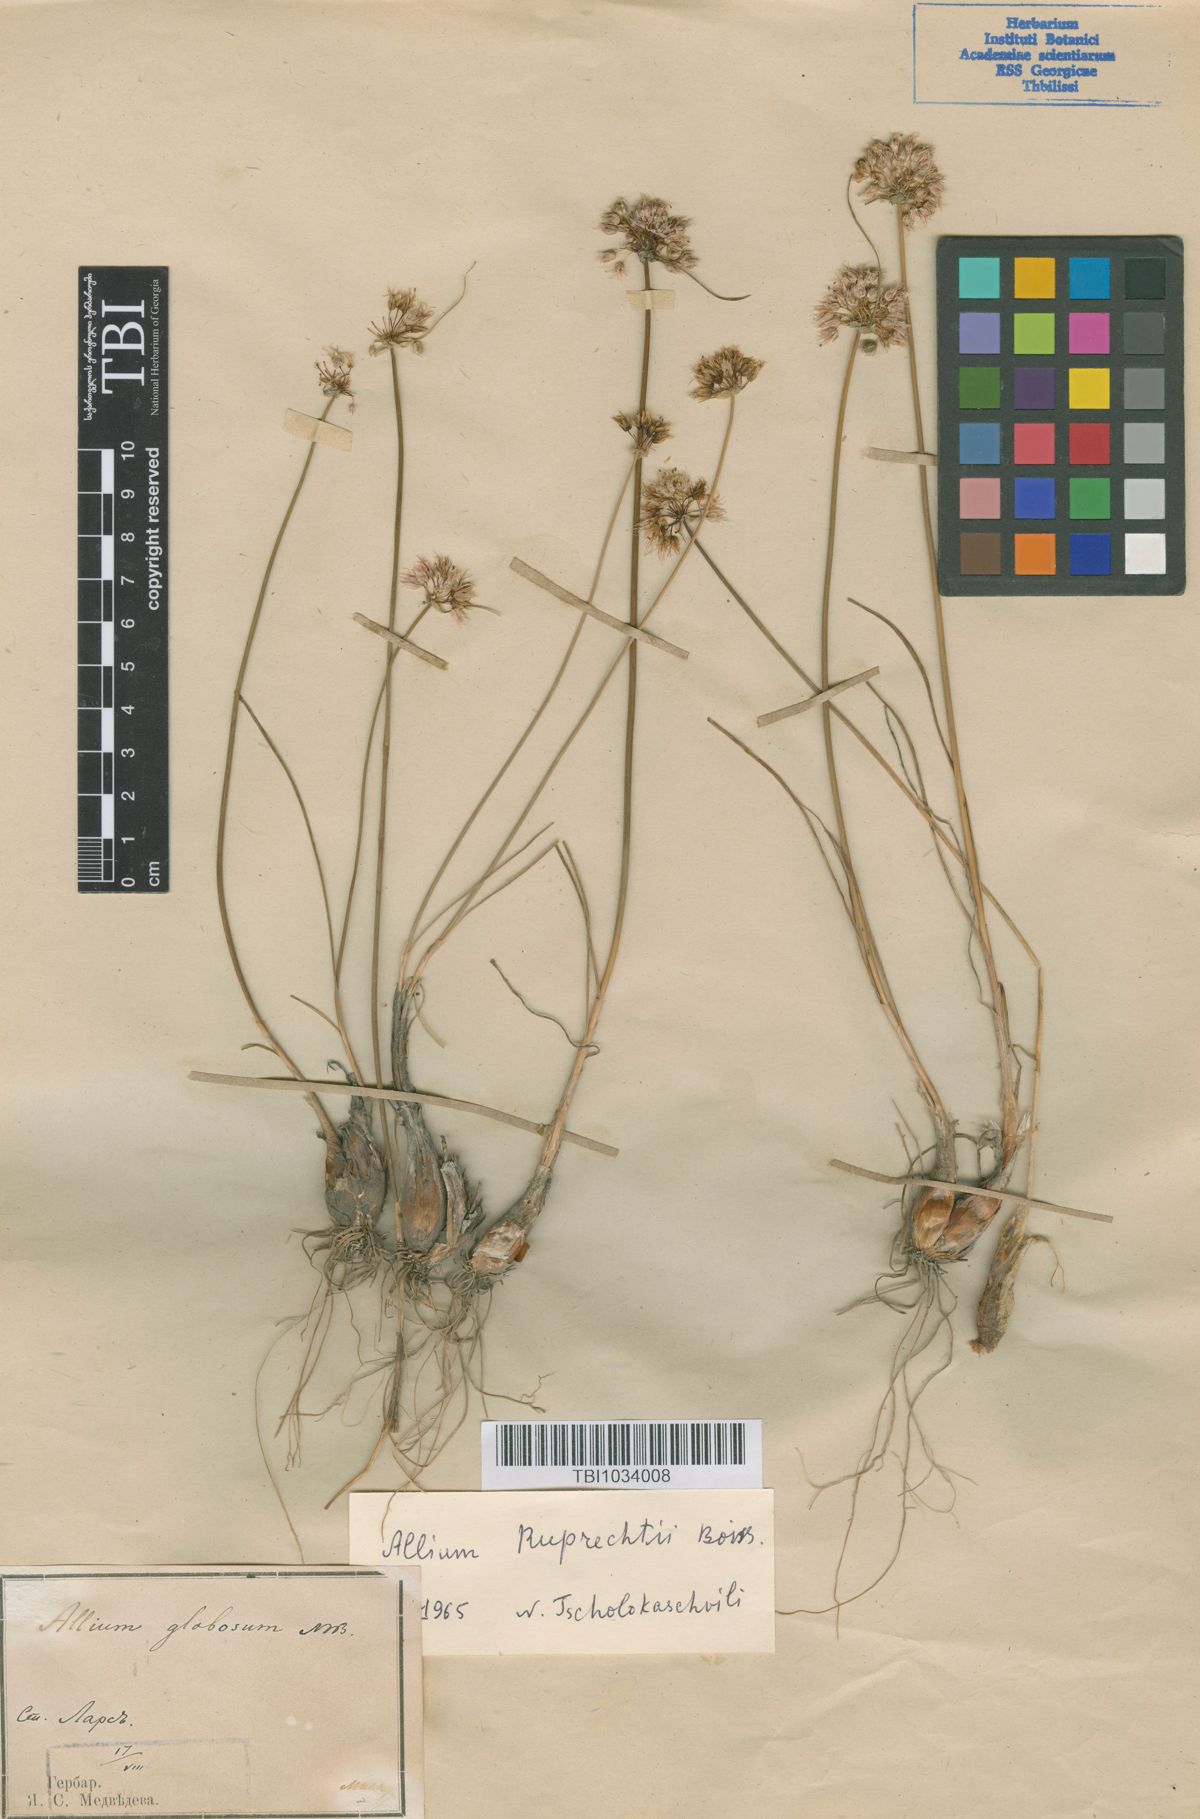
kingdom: Plantae
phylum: Tracheophyta
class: Liliopsida
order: Asparagales
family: Amaryllidaceae
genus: Allium
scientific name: Allium saxatile
